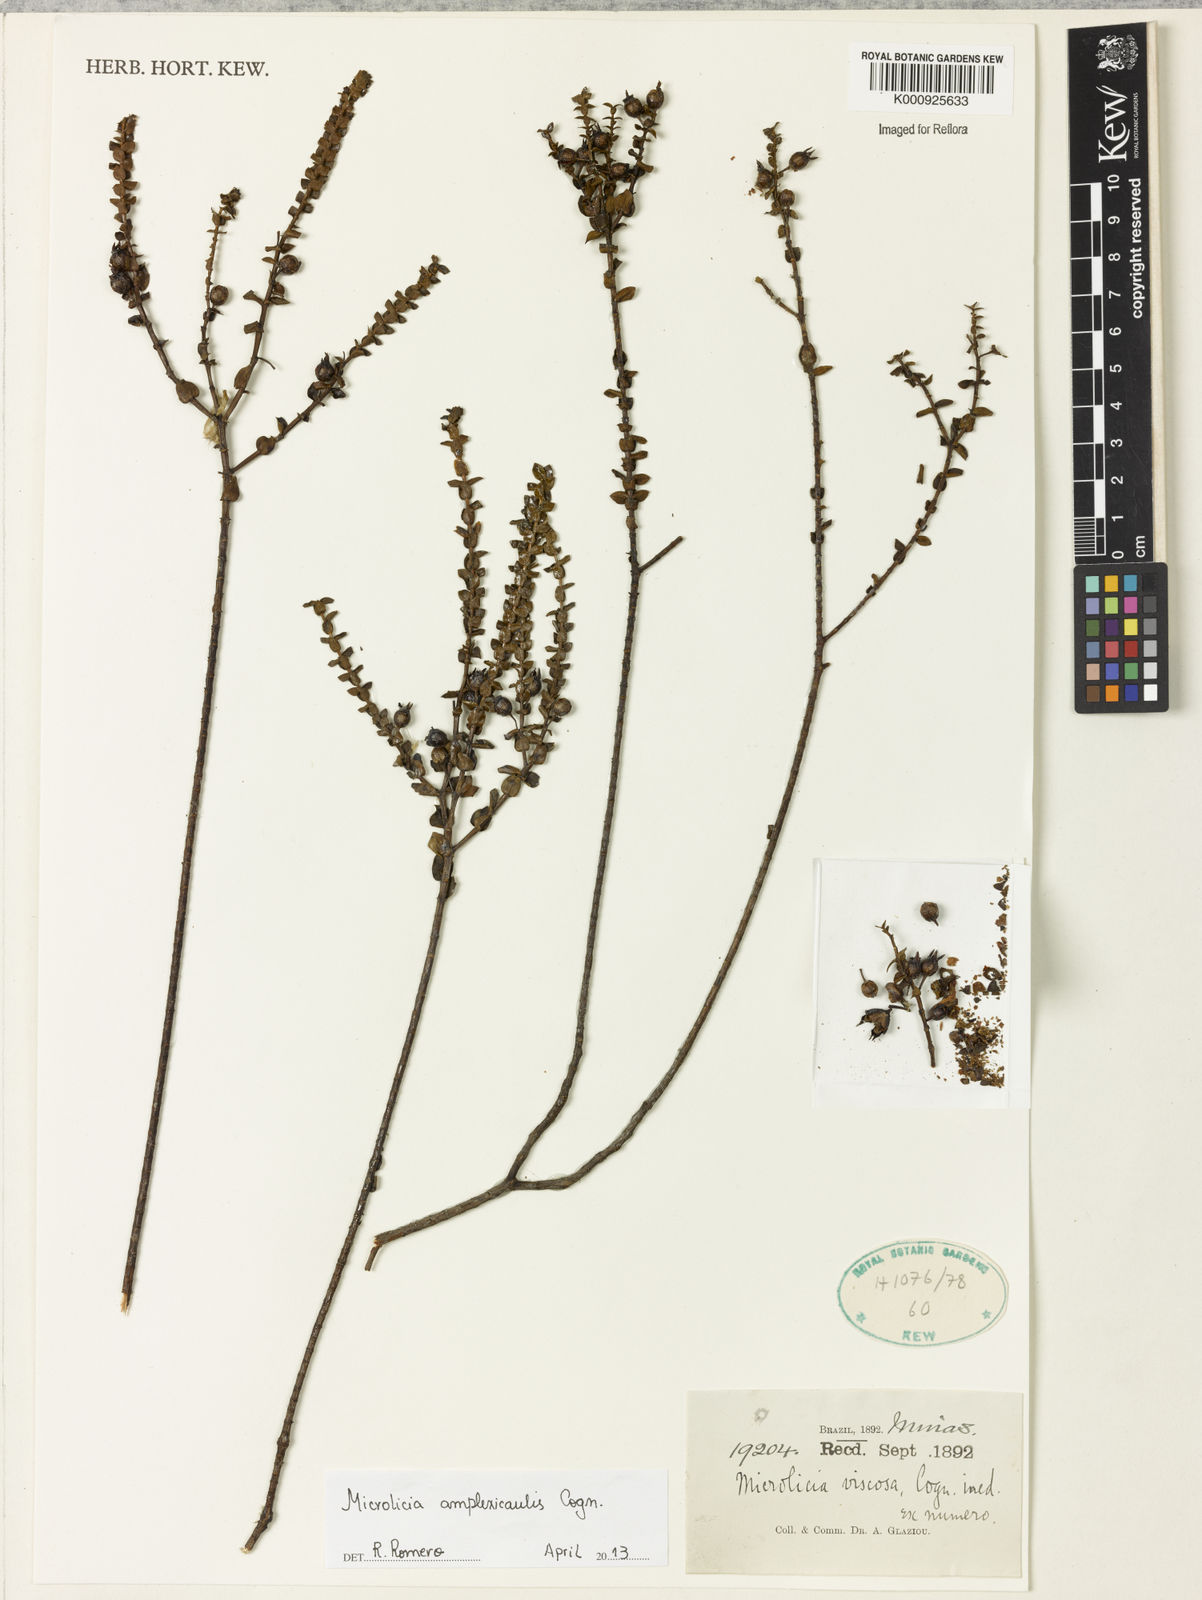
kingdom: Plantae
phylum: Tracheophyta
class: Magnoliopsida
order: Myrtales
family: Melastomataceae
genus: Microlicia
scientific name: Microlicia amplexicaulis
